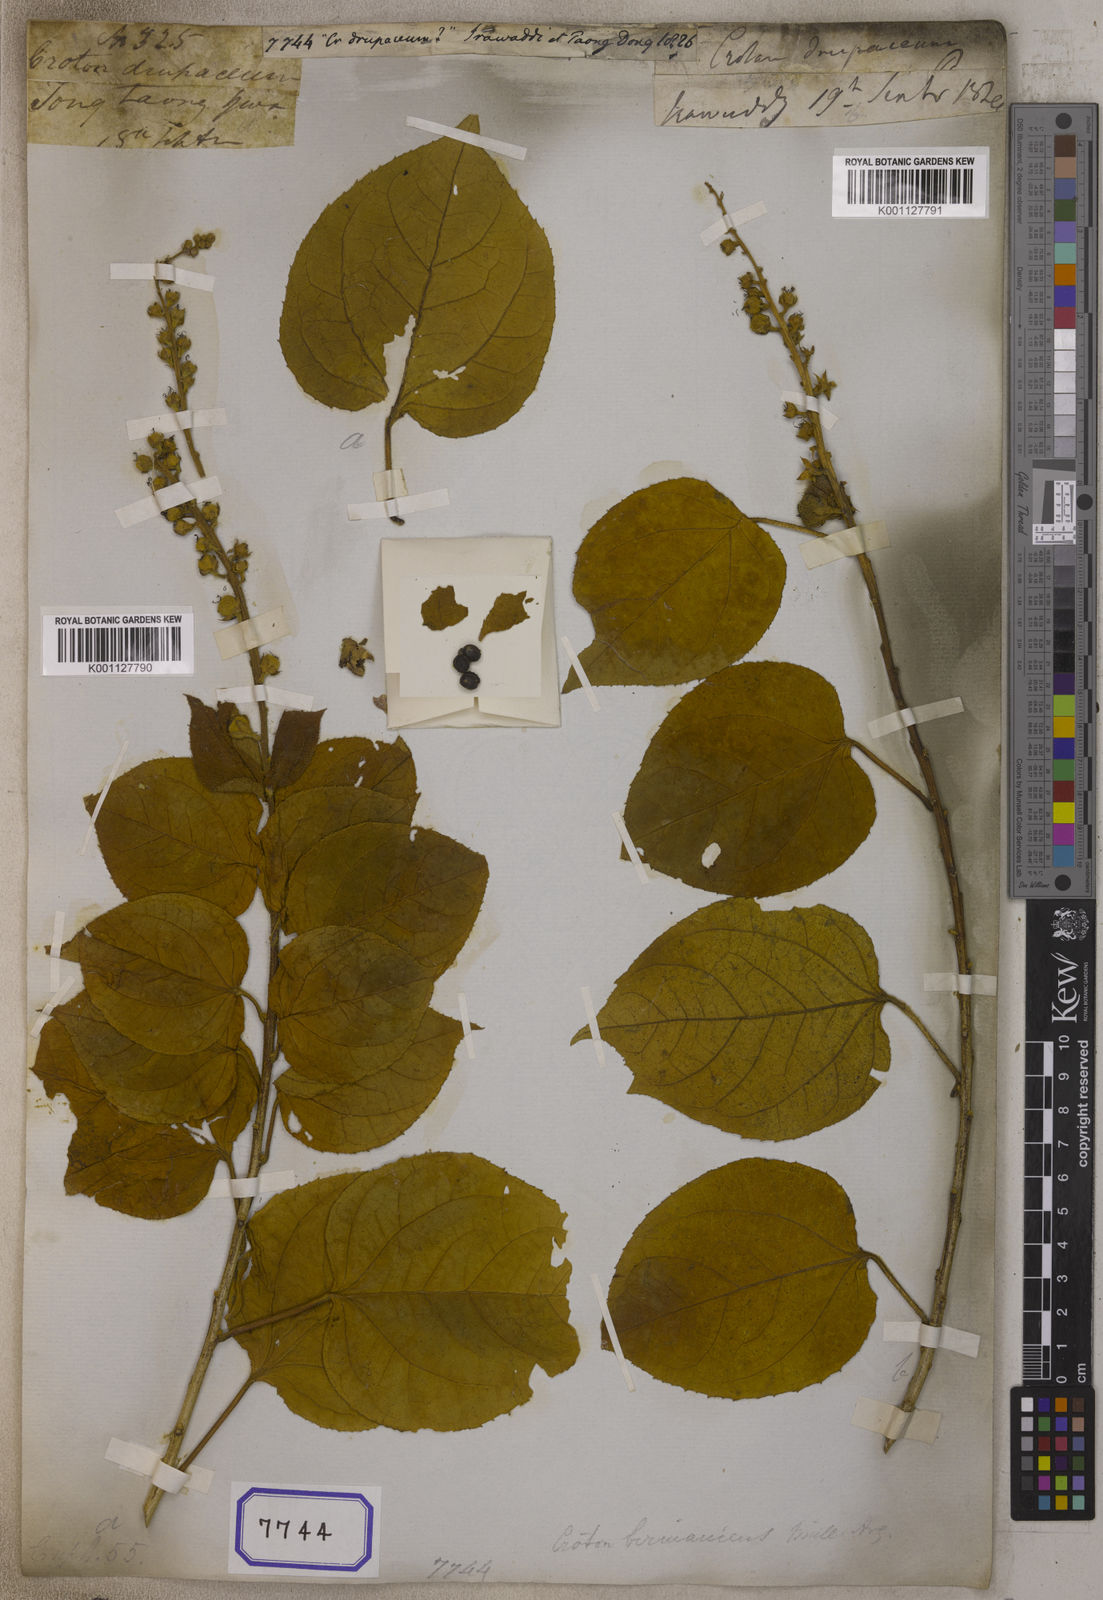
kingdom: Plantae
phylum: Tracheophyta
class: Magnoliopsida
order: Malpighiales
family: Euphorbiaceae
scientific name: Euphorbiaceae
